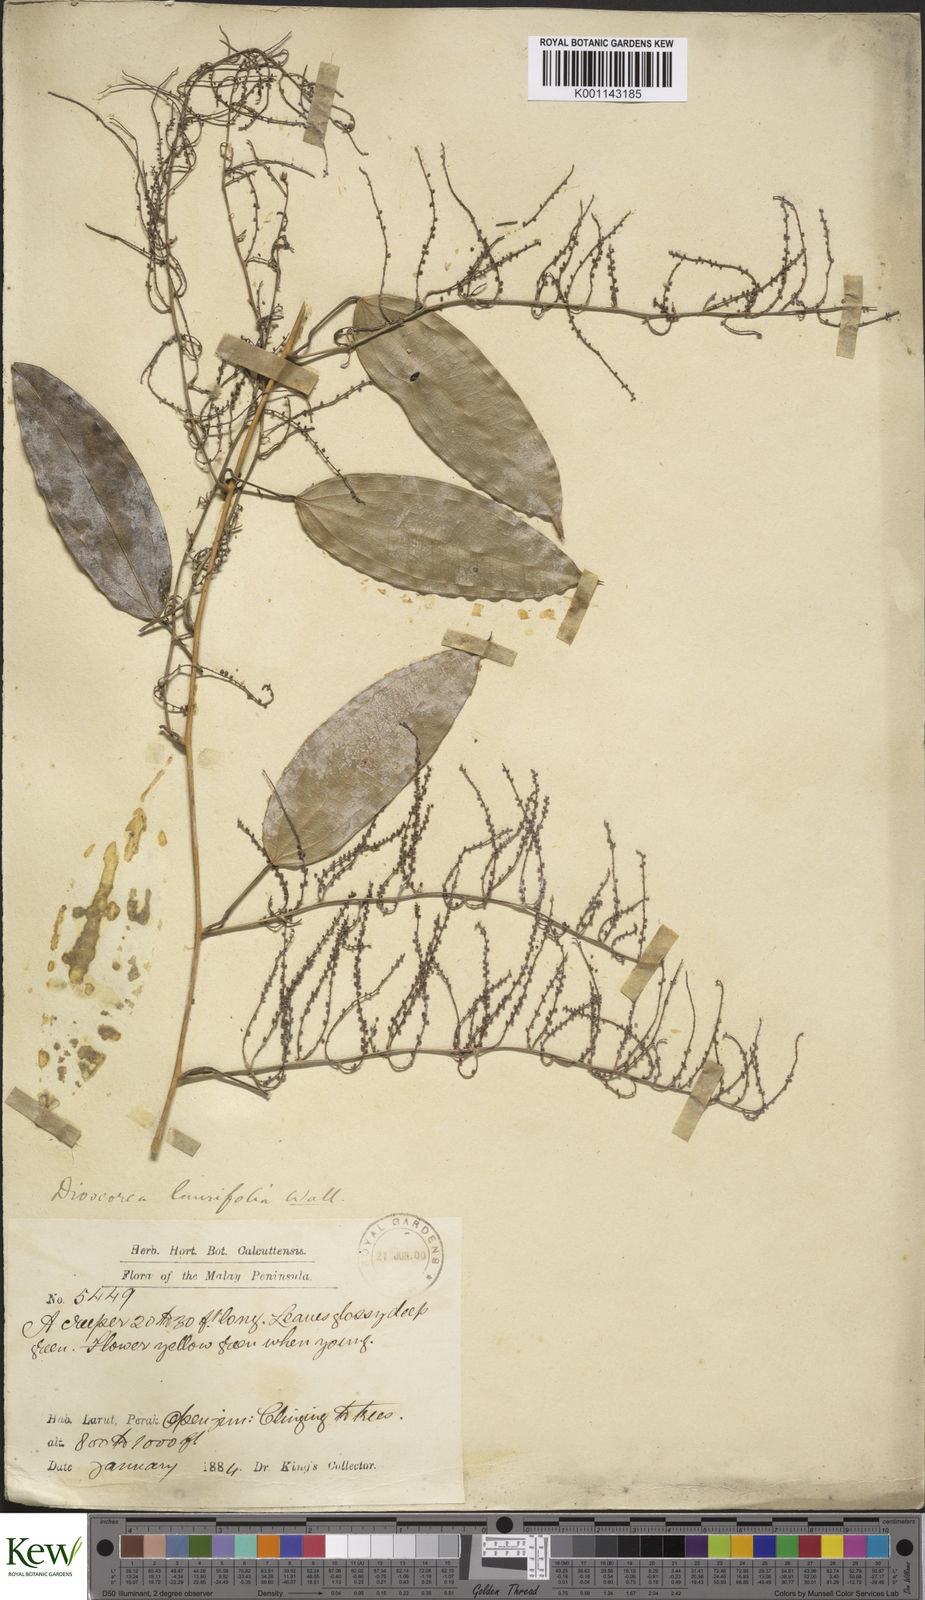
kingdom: Plantae
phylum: Tracheophyta
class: Liliopsida
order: Dioscoreales
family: Dioscoreaceae
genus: Dioscorea
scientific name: Dioscorea laurifolia
